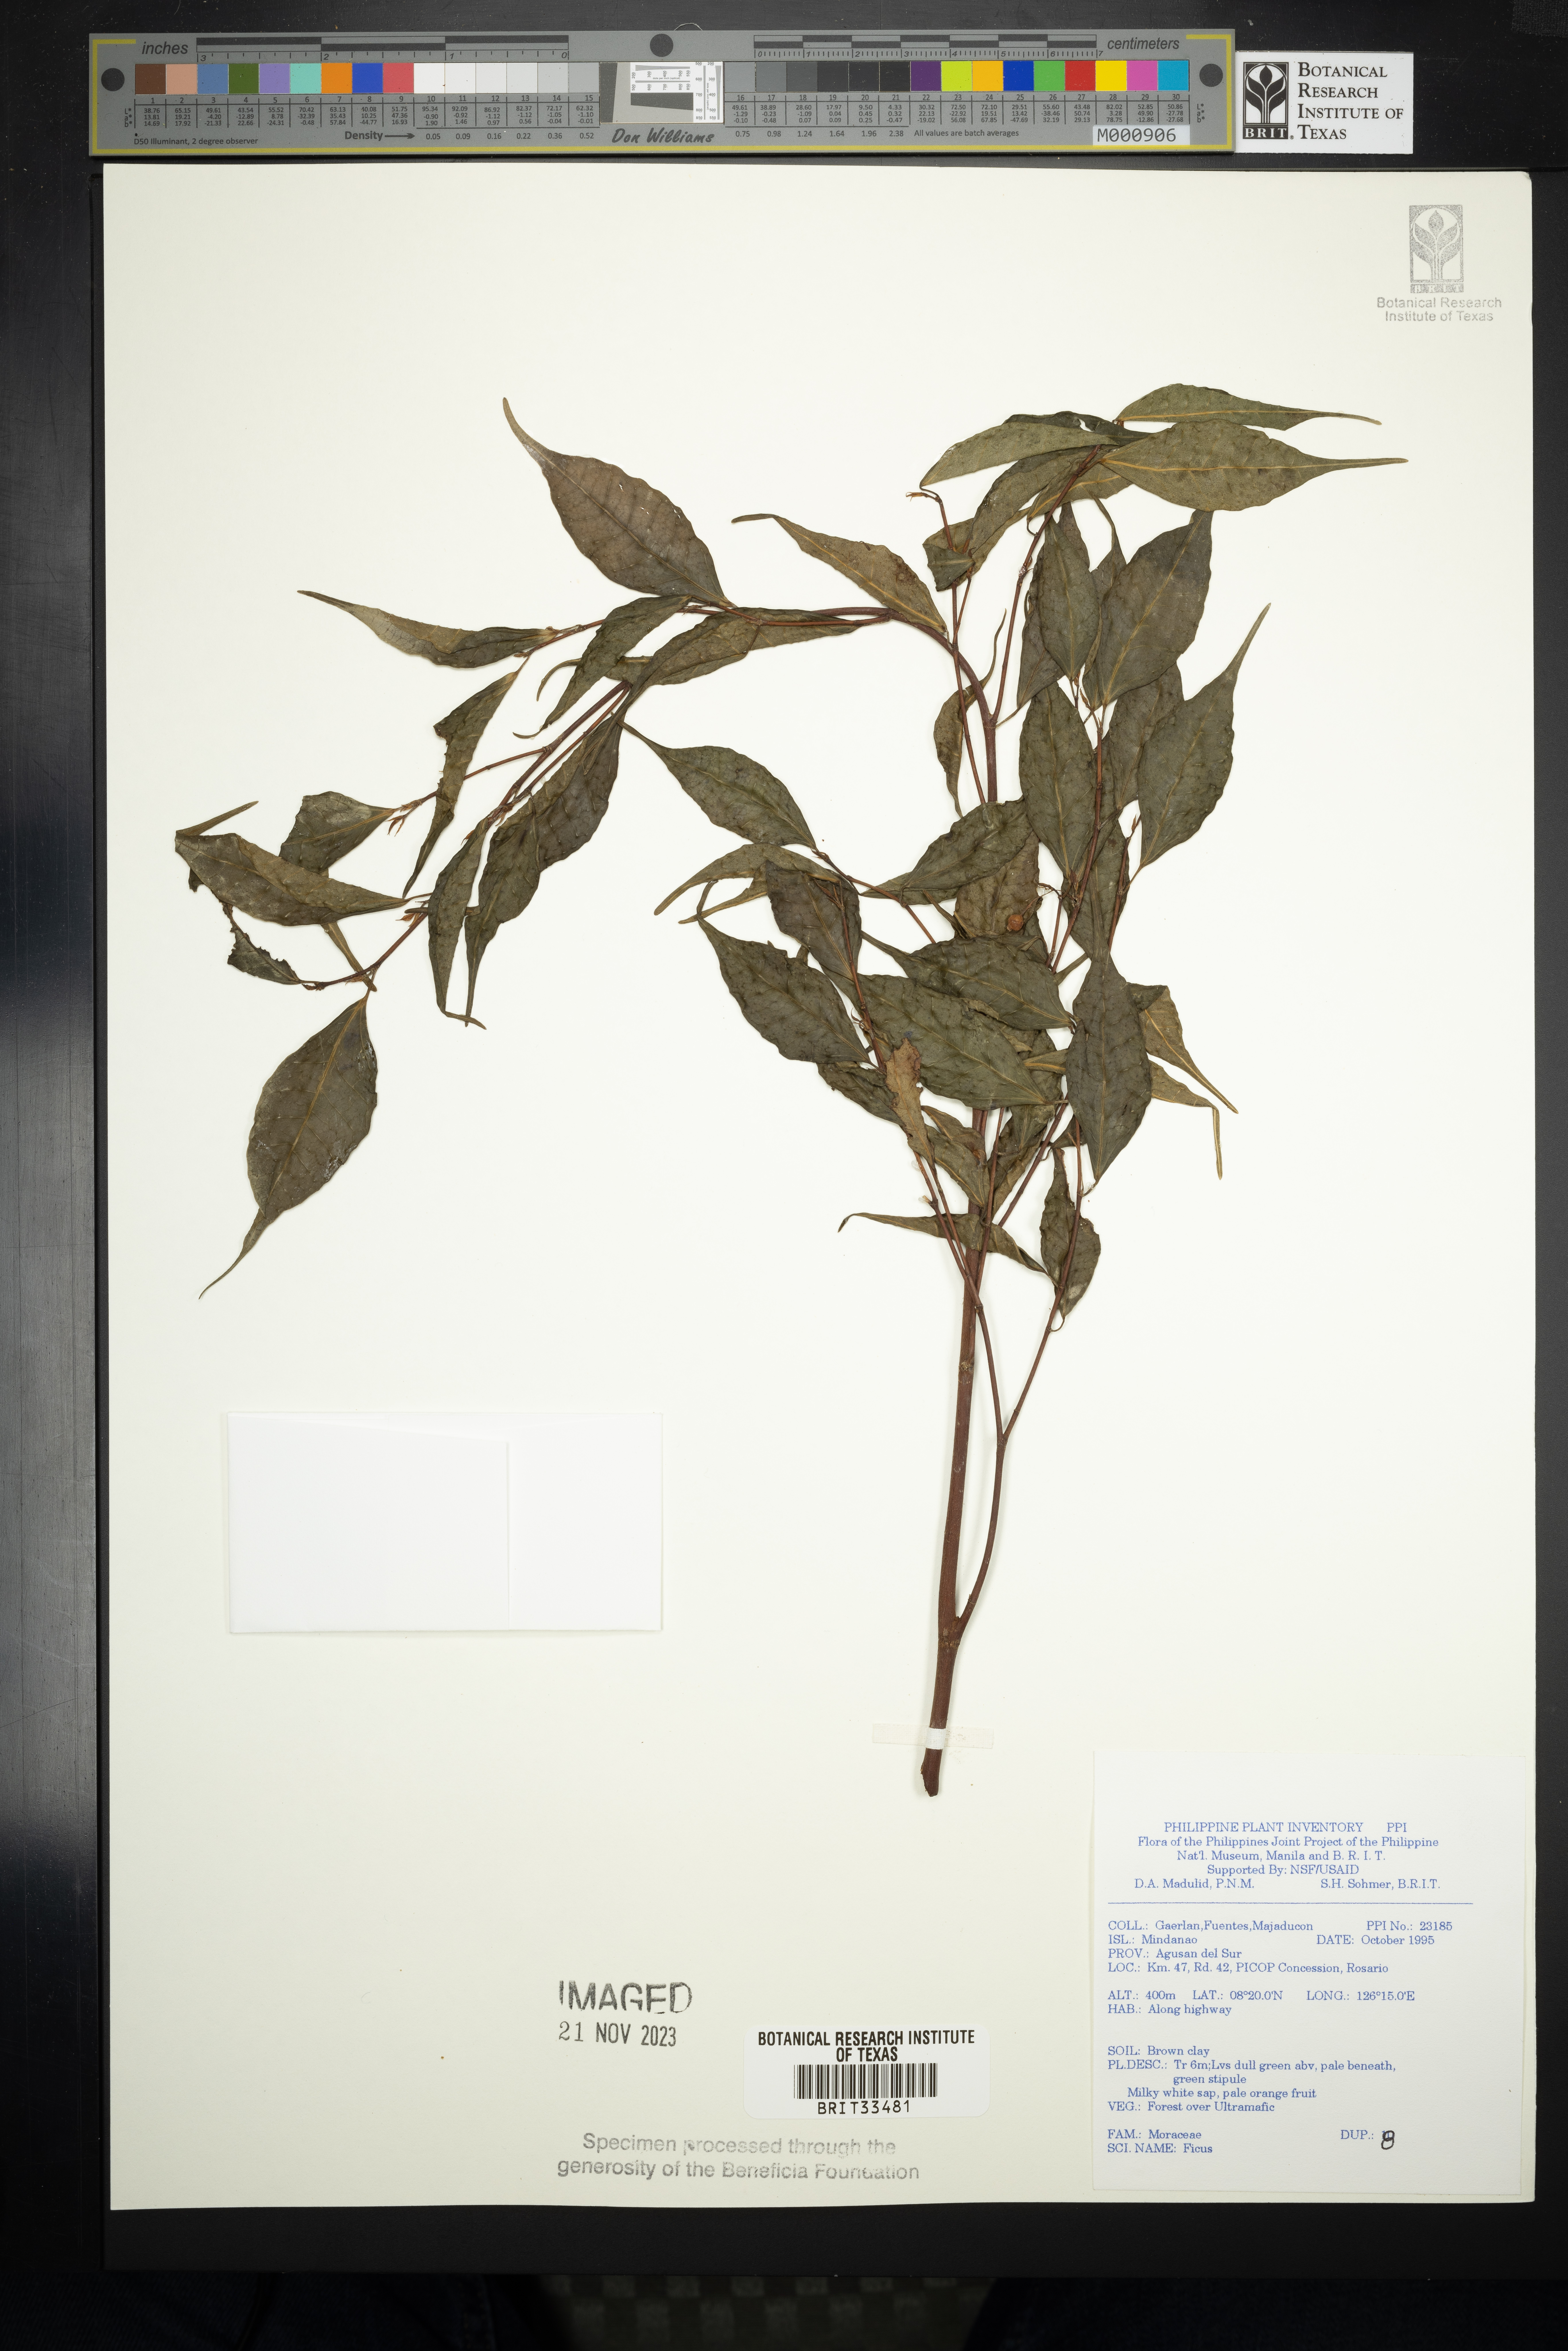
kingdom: Plantae
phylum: Tracheophyta
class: Magnoliopsida
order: Rosales
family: Moraceae
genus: Ficus
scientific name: Ficus
